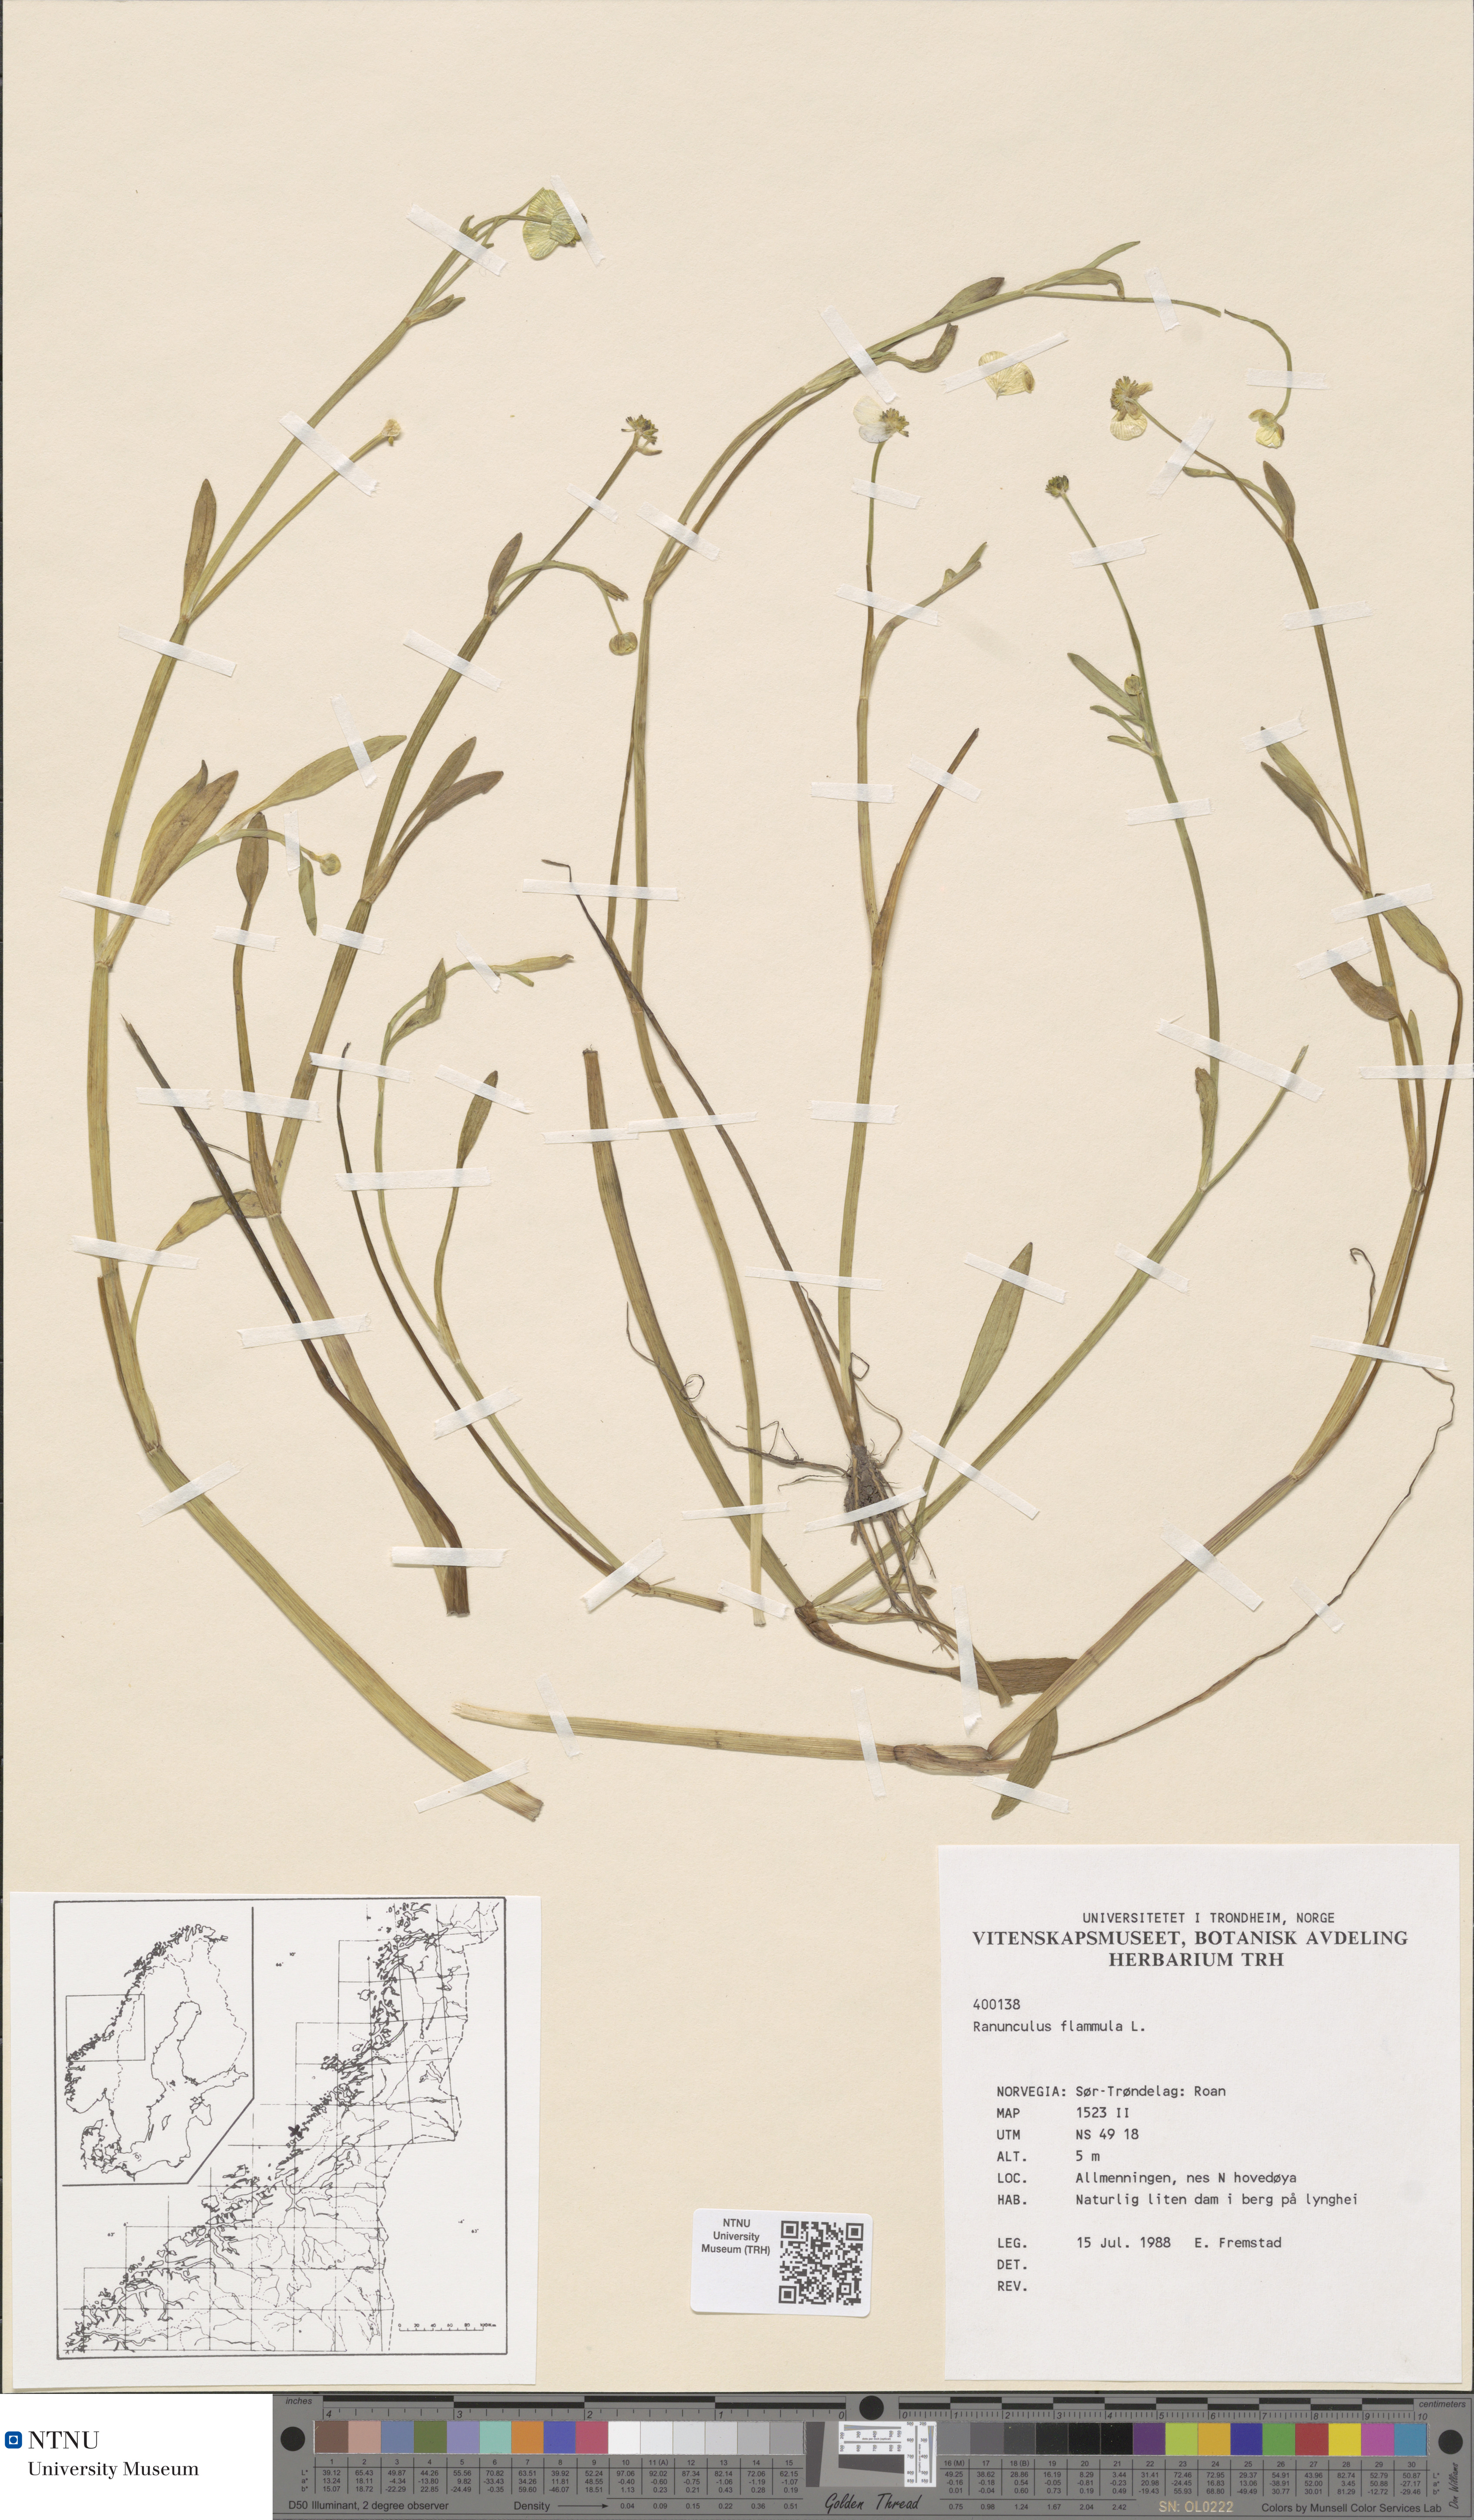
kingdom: Plantae
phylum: Tracheophyta
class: Magnoliopsida
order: Ranunculales
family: Ranunculaceae
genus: Ranunculus
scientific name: Ranunculus flammula
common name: Lesser spearwort
